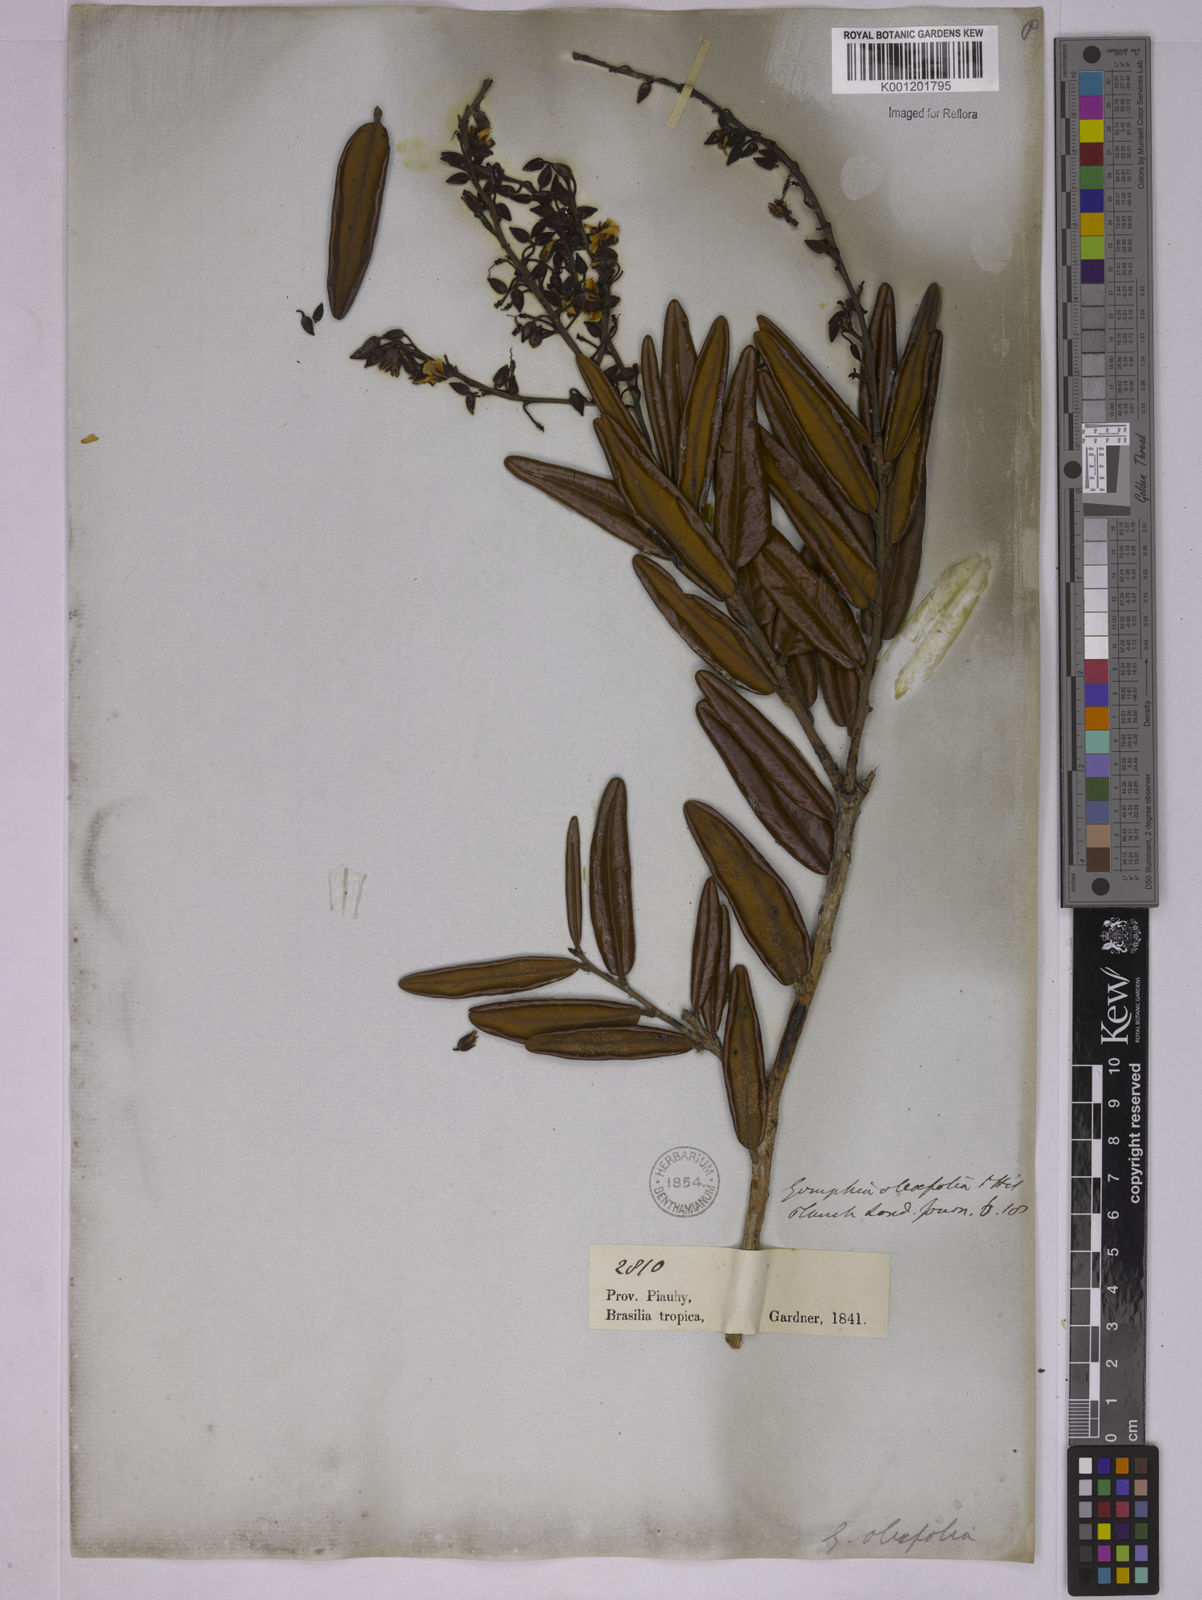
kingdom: Plantae
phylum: Tracheophyta
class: Magnoliopsida
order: Malpighiales
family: Ochnaceae
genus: Ouratea
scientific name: Ouratea oleifolia
